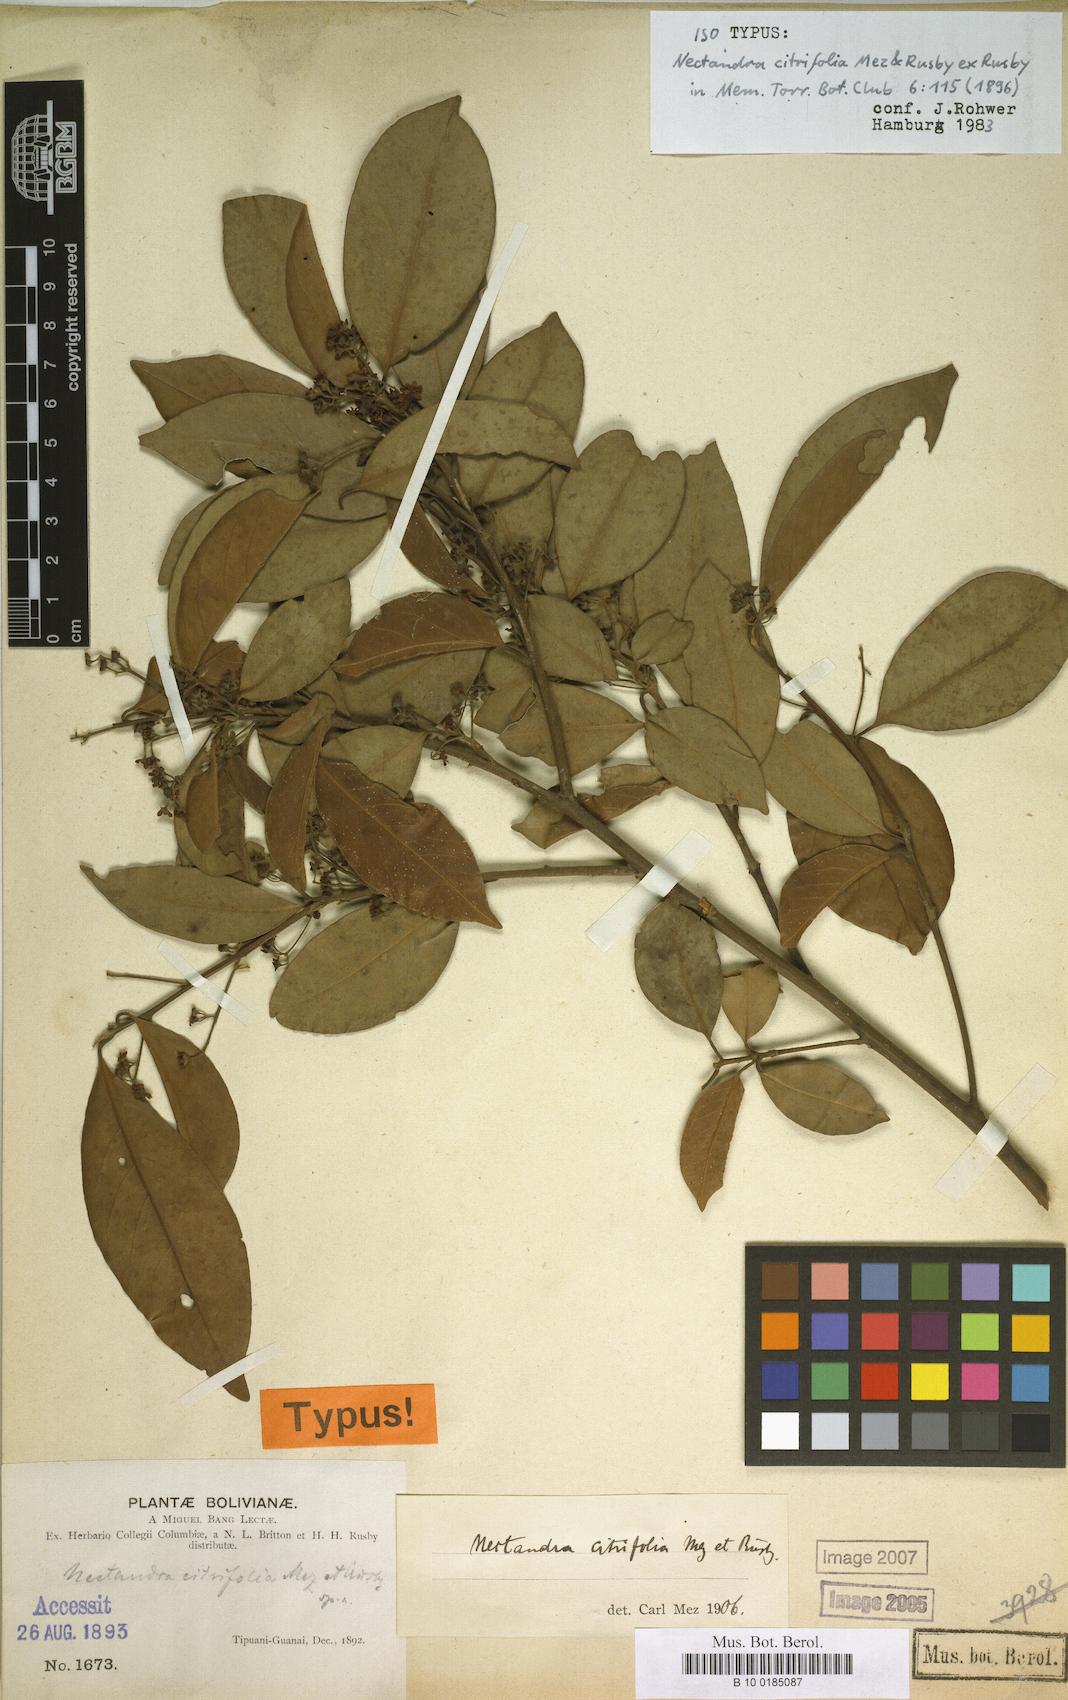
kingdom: Plantae
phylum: Tracheophyta
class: Magnoliopsida
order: Laurales
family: Lauraceae
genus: Nectandra
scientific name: Nectandra citrifolia
